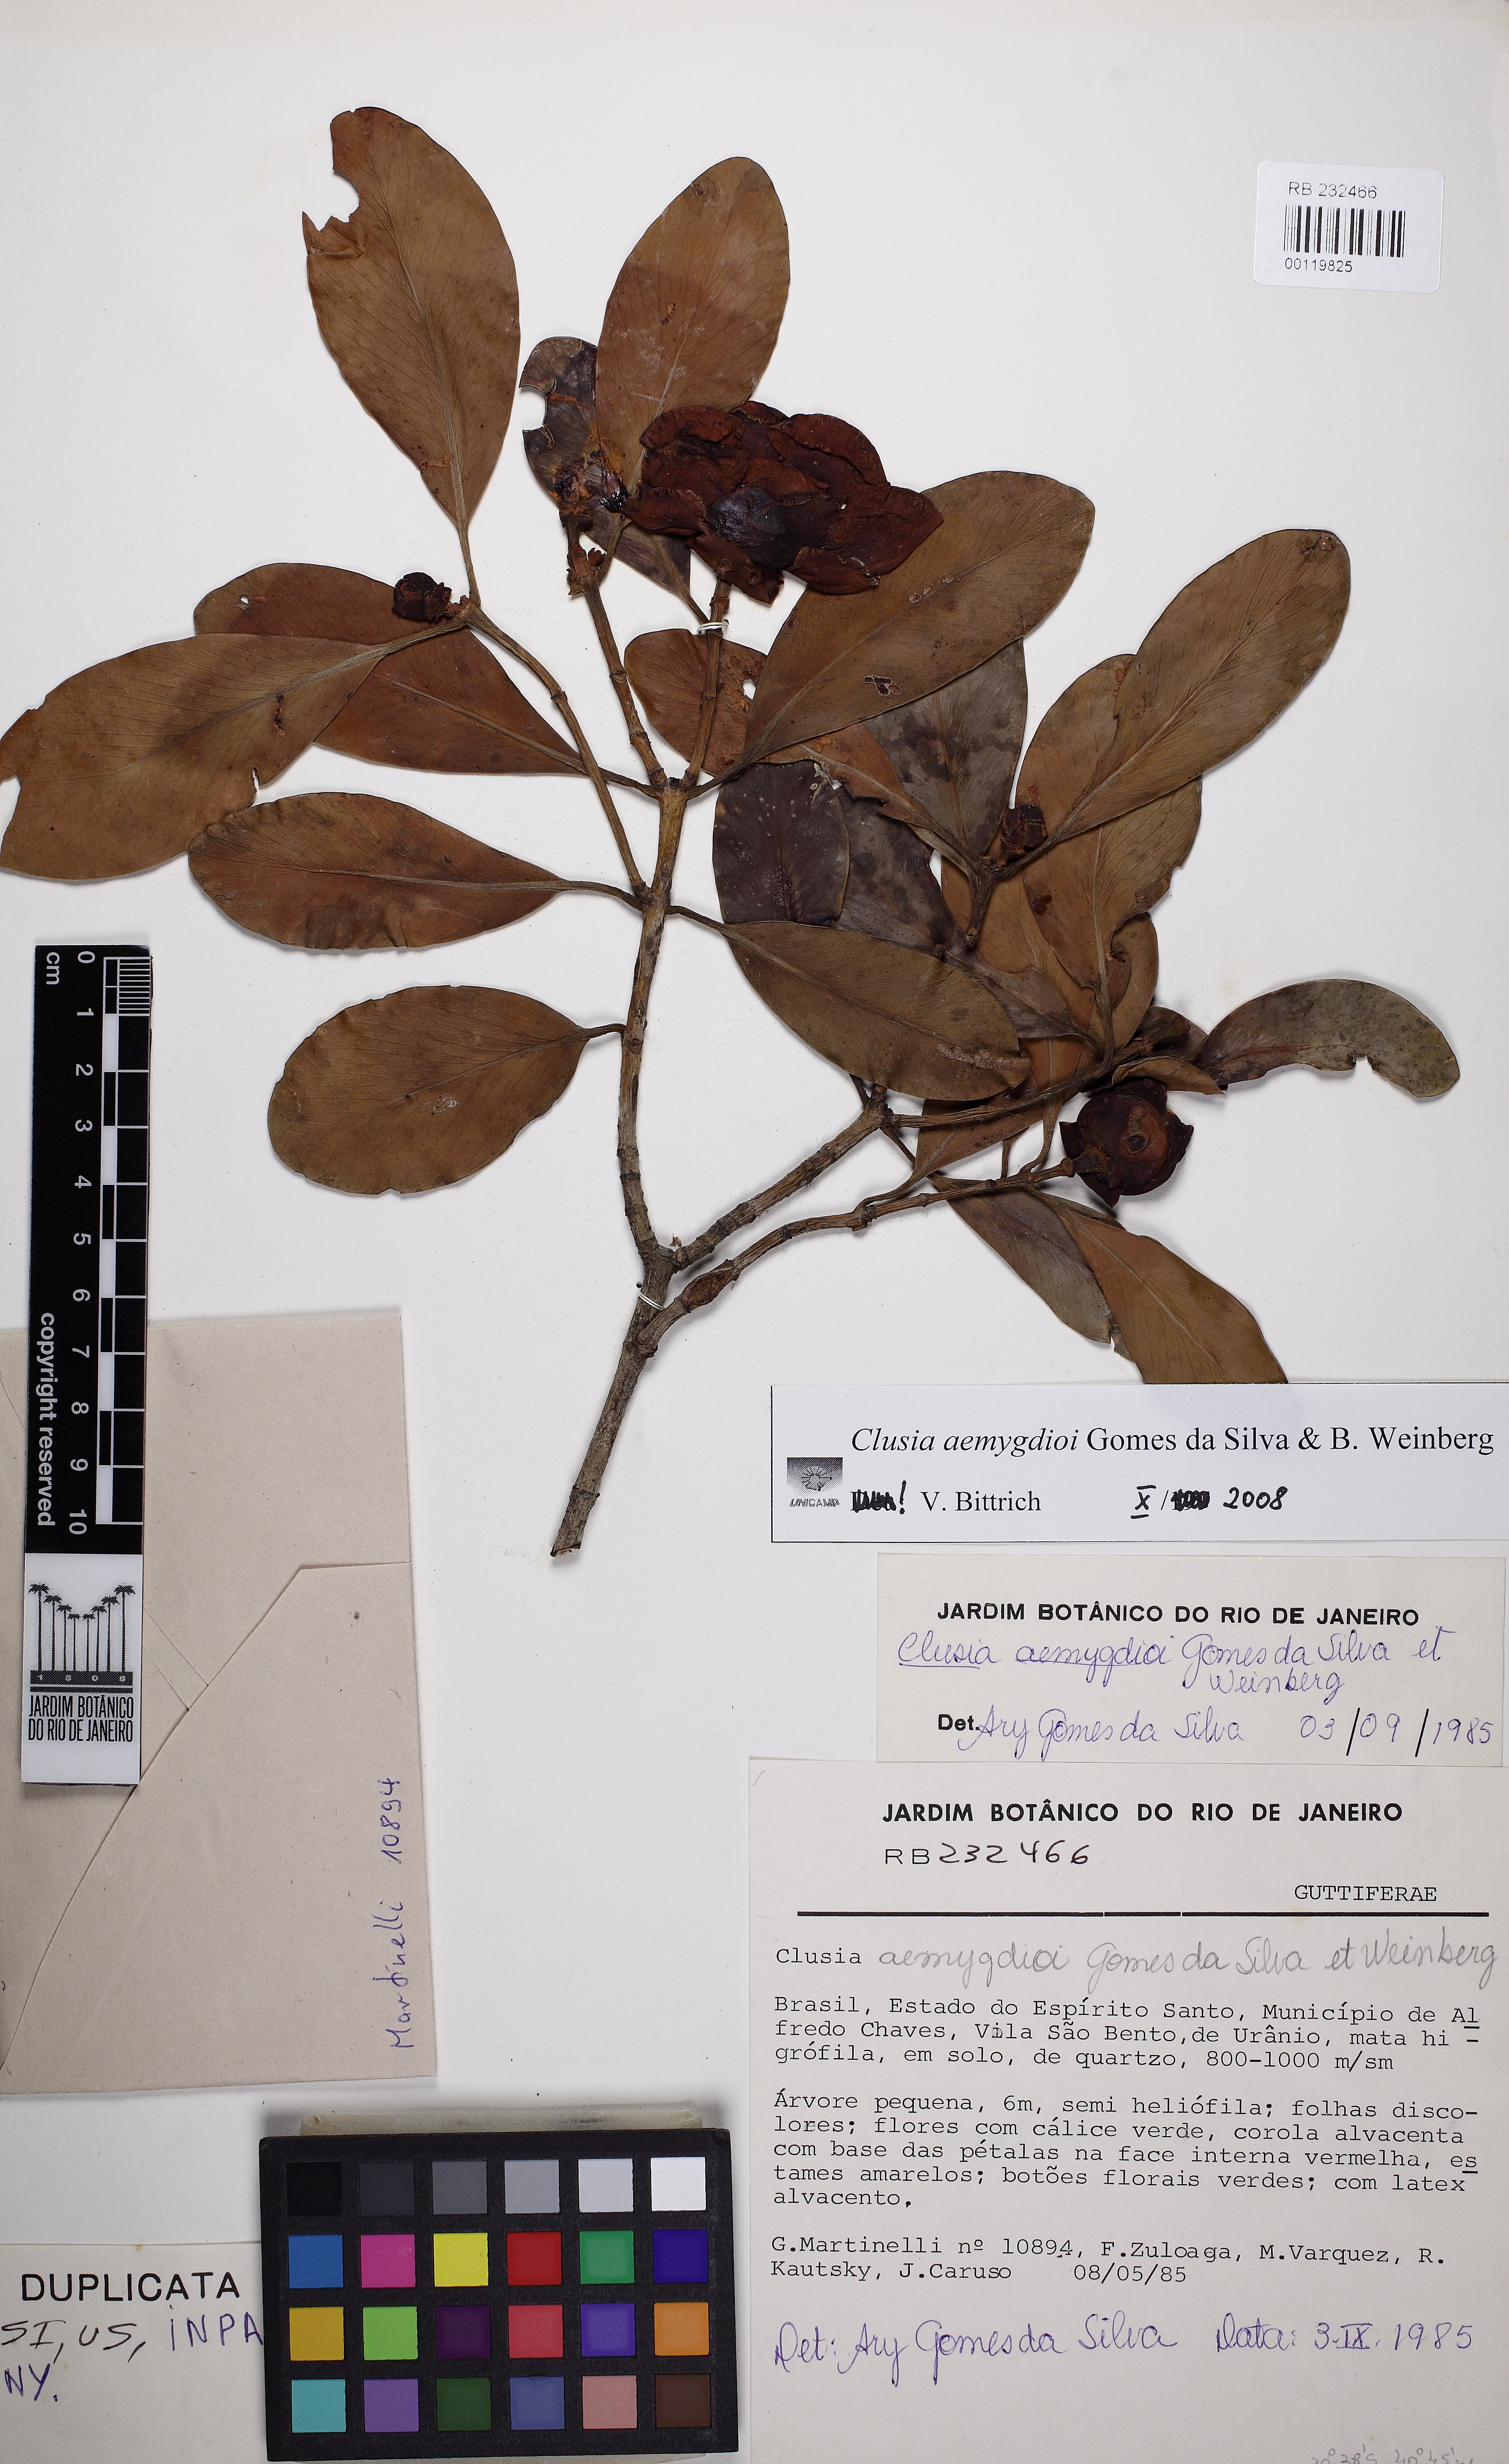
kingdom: Plantae
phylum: Tracheophyta
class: Magnoliopsida
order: Malpighiales
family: Clusiaceae
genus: Clusia
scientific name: Clusia aemygdioi
